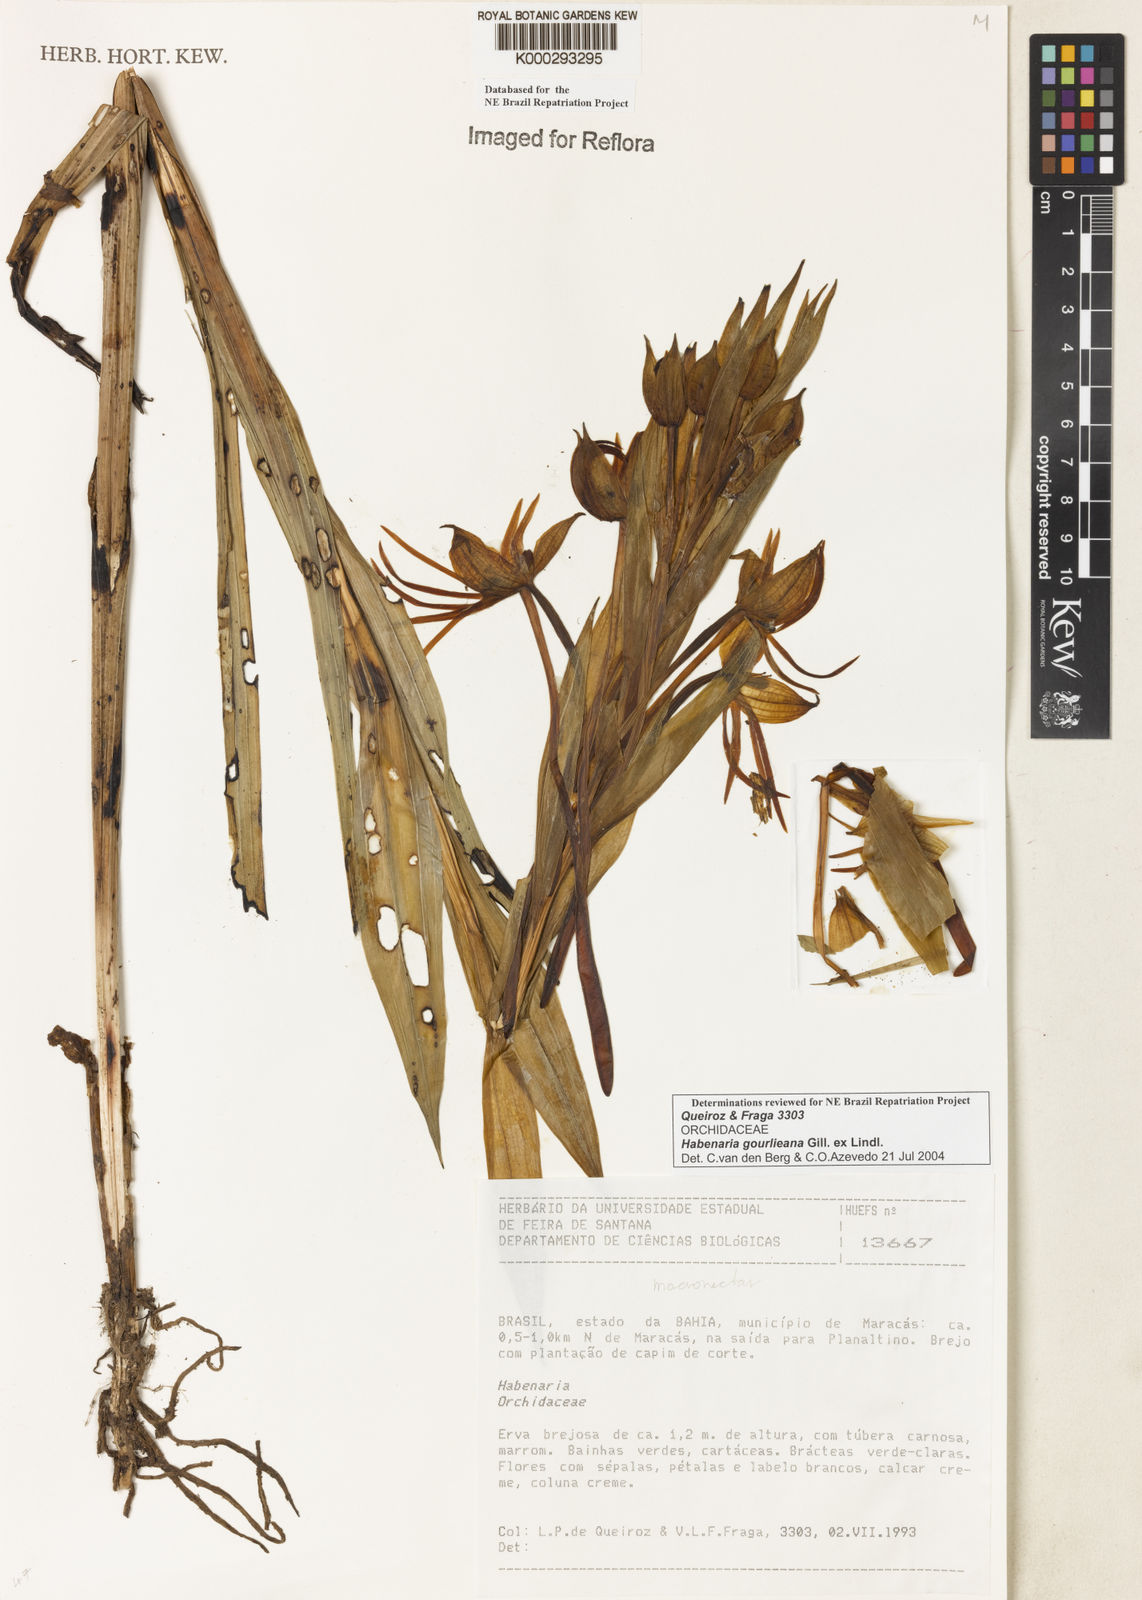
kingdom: Plantae
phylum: Tracheophyta
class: Liliopsida
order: Asparagales
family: Orchidaceae
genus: Habenaria
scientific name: Habenaria gourlieana
